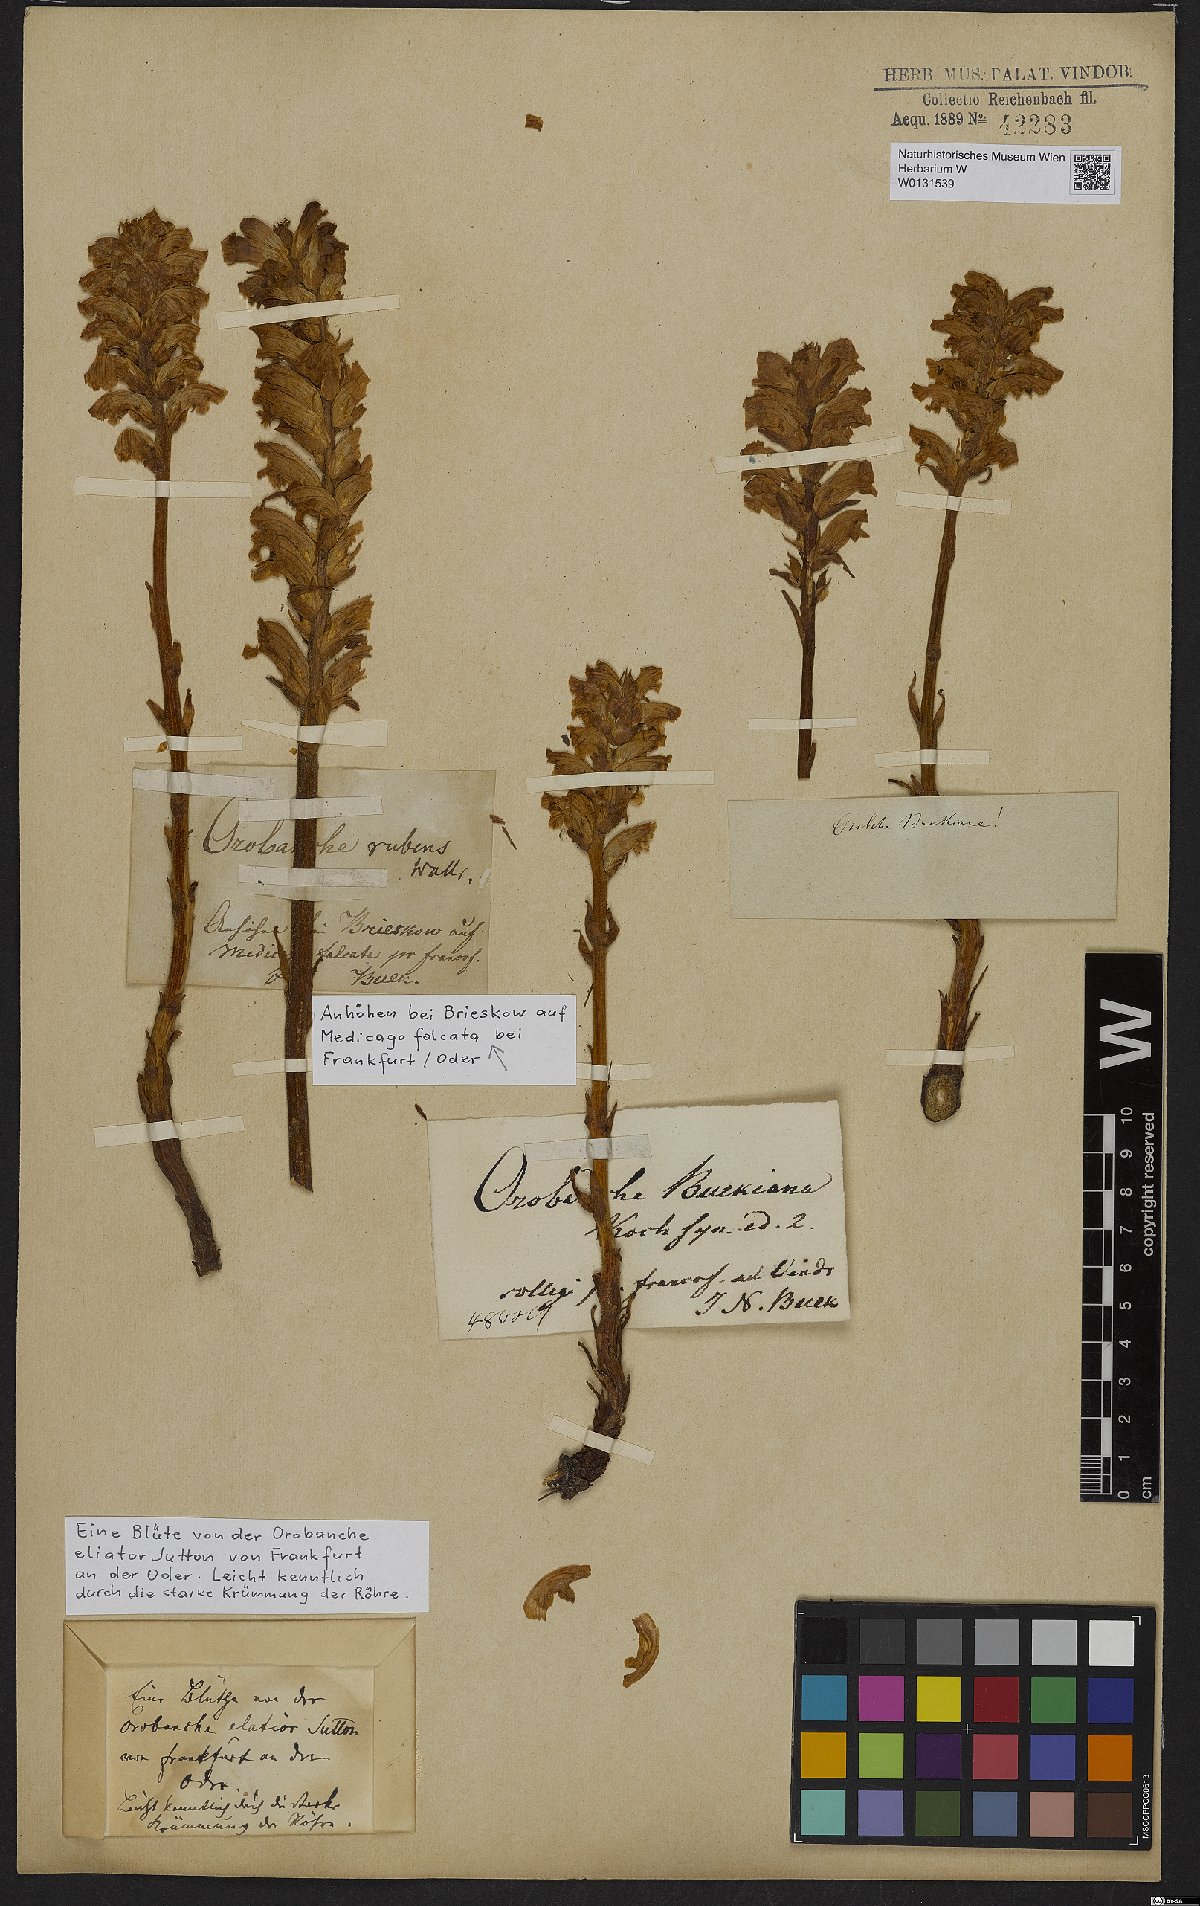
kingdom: Plantae
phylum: Tracheophyta
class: Magnoliopsida
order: Lamiales
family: Orobanchaceae
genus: Orobanche
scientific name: Orobanche lutea
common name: Yellow broomrape
